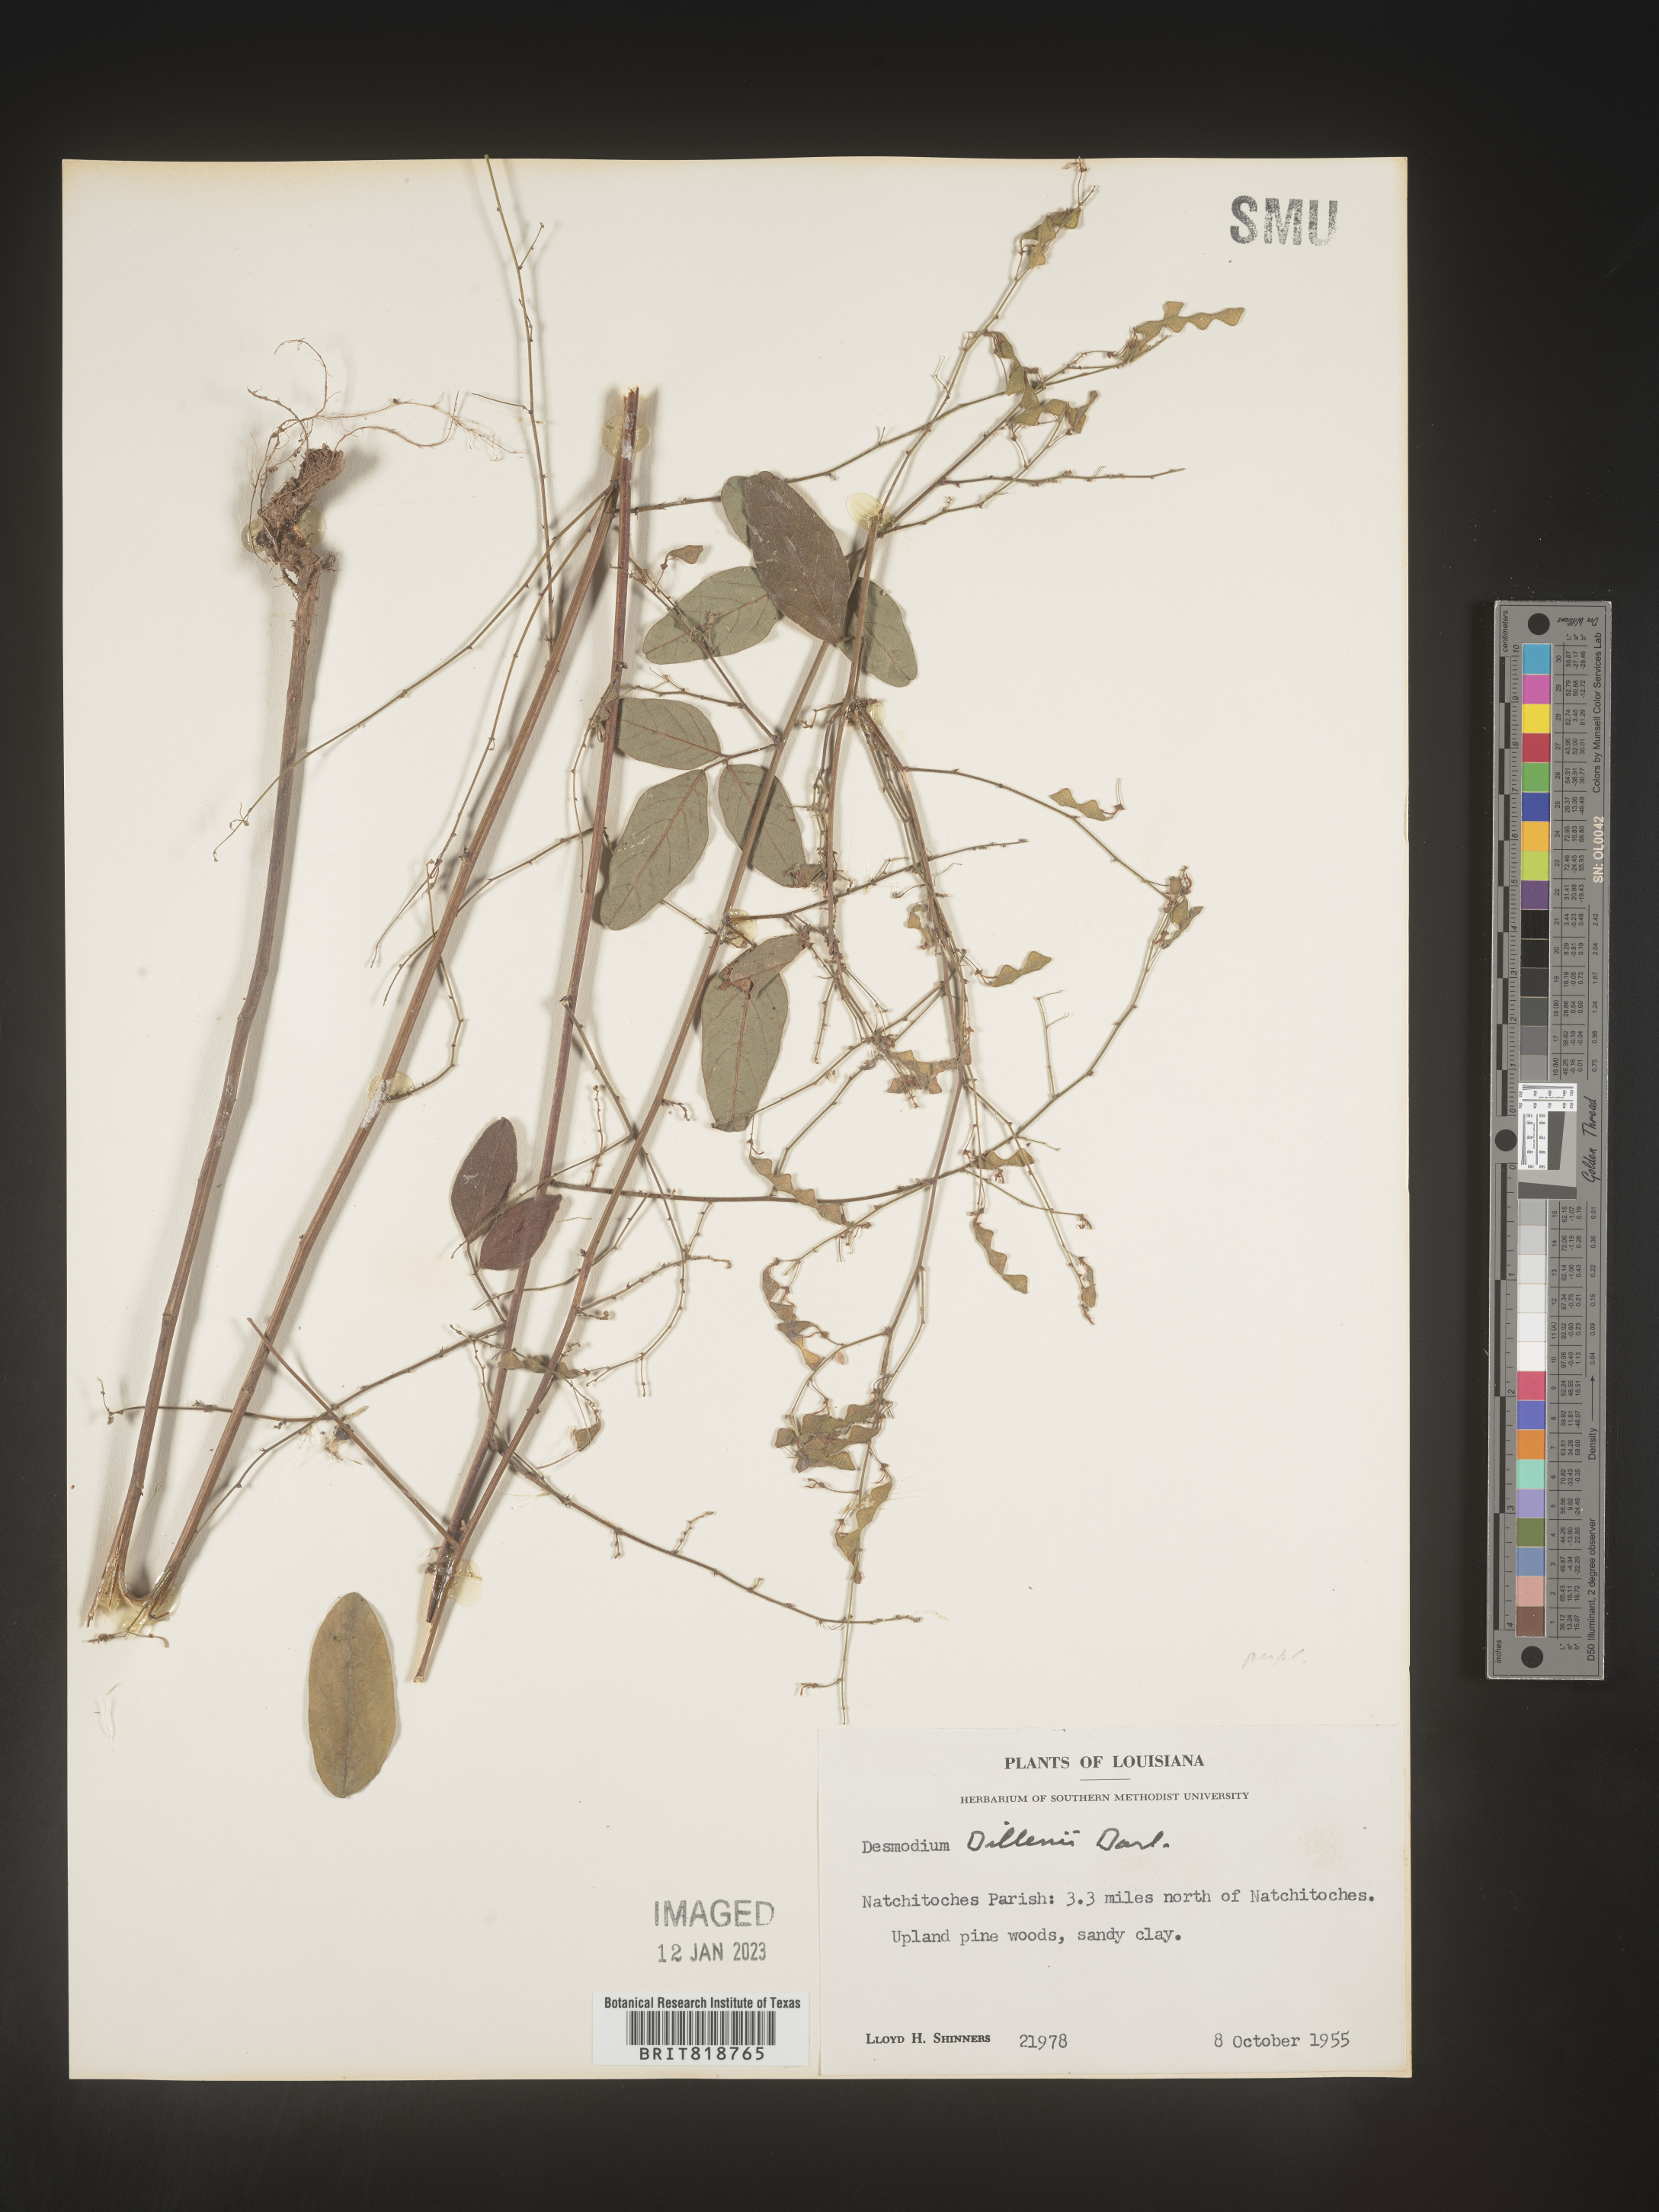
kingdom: Plantae
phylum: Tracheophyta
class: Magnoliopsida
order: Fabales
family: Fabaceae
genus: Desmodium
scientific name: Desmodium perplexum
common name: Perplexed tick trefoil
